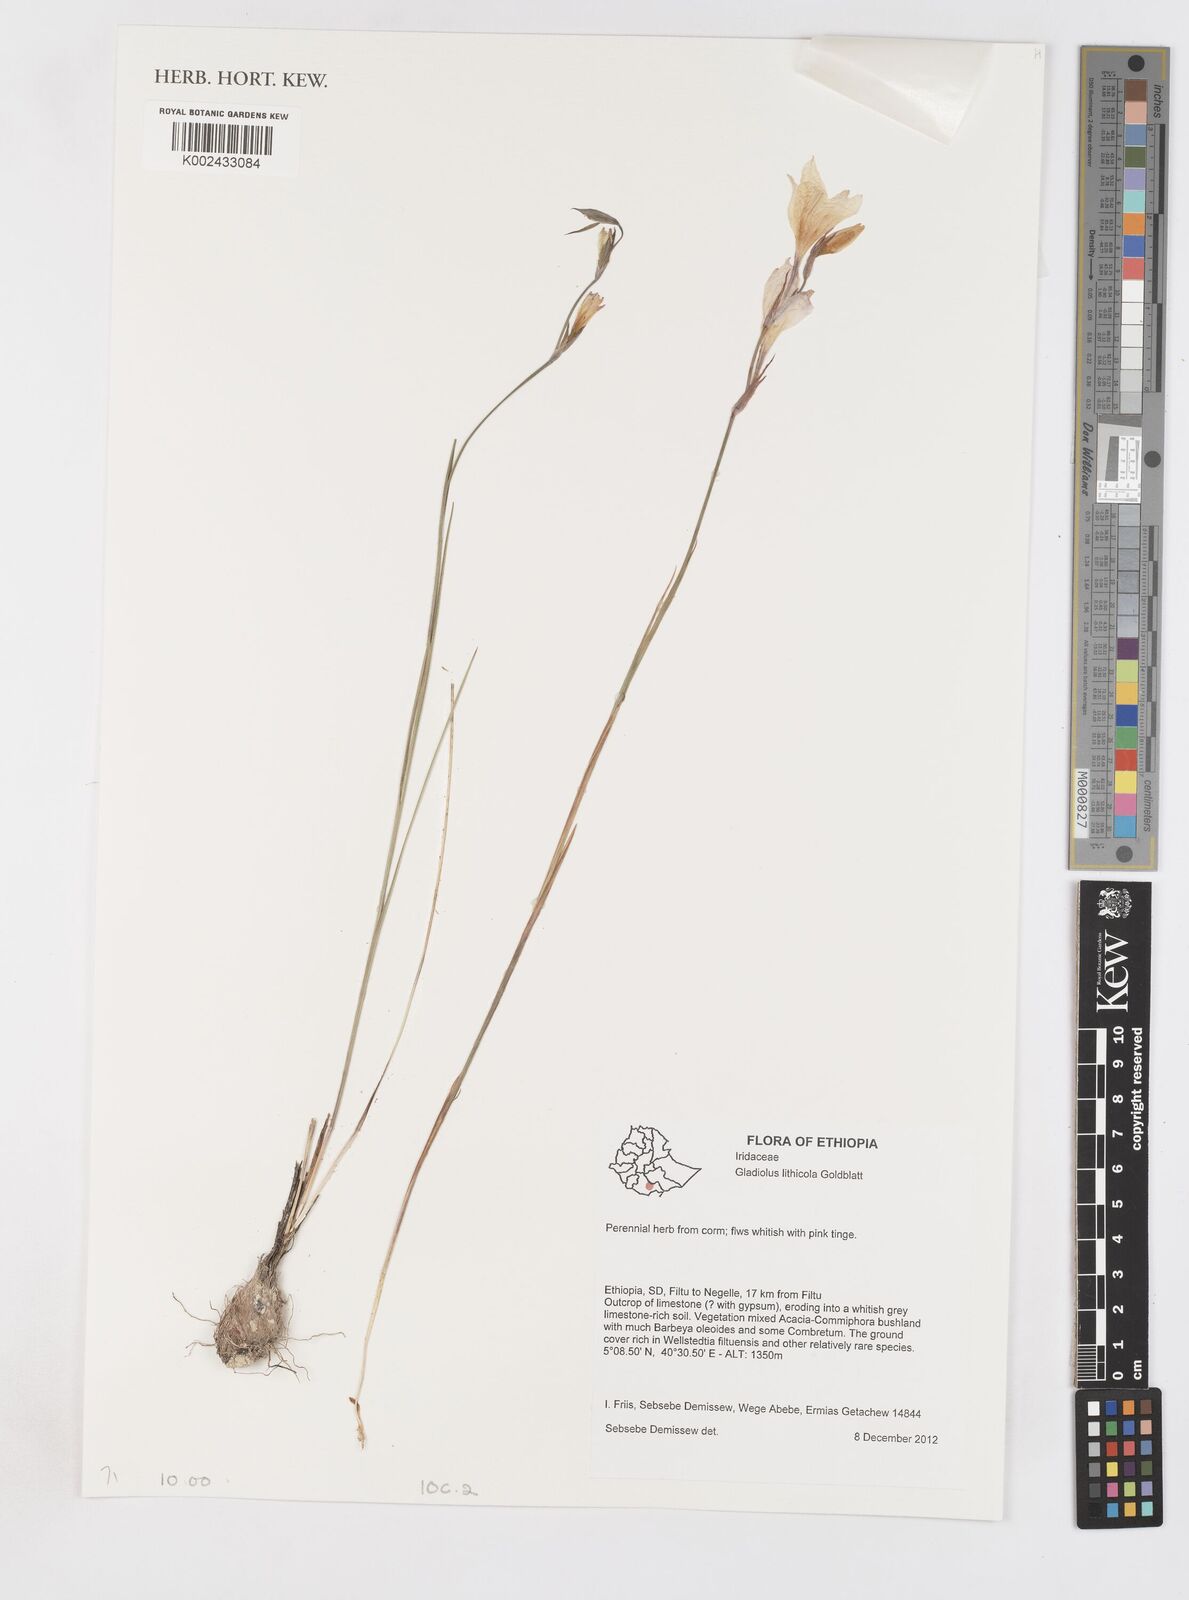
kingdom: Plantae
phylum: Tracheophyta
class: Liliopsida
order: Asparagales
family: Iridaceae
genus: Gladiolus
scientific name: Gladiolus lithicola
